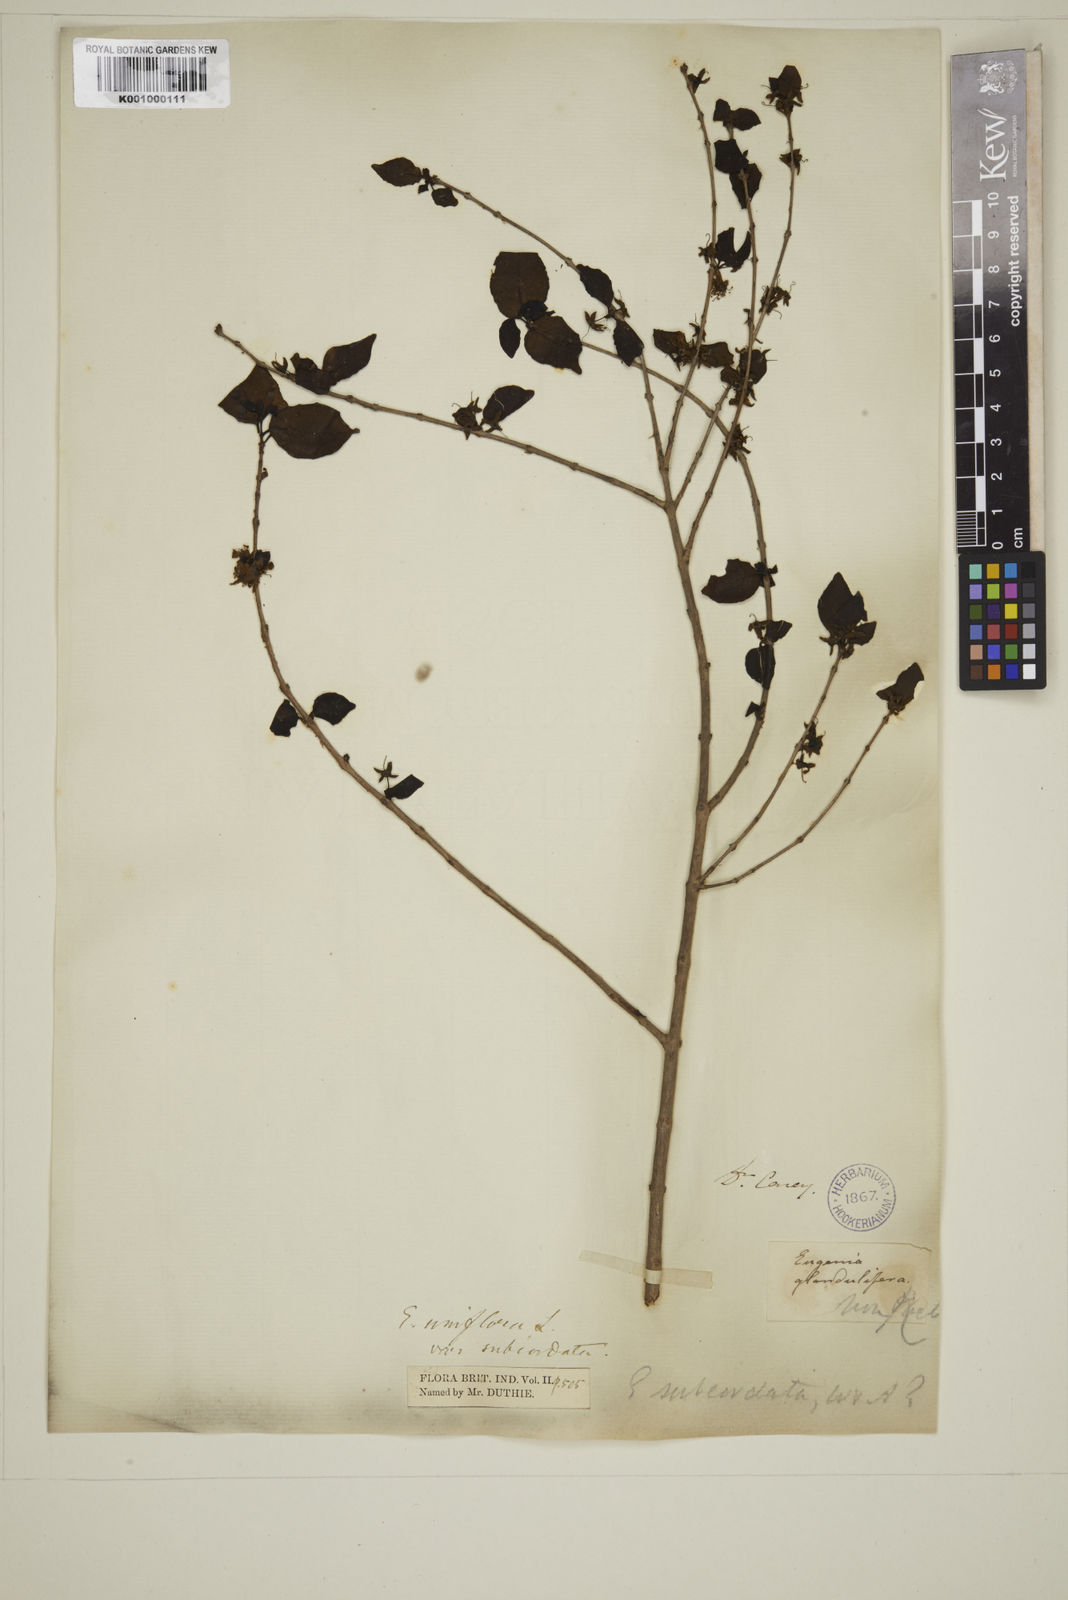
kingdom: Plantae
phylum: Tracheophyta
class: Magnoliopsida
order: Myrtales
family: Myrtaceae
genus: Eugenia
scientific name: Eugenia uniflora
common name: Surinam cherry
